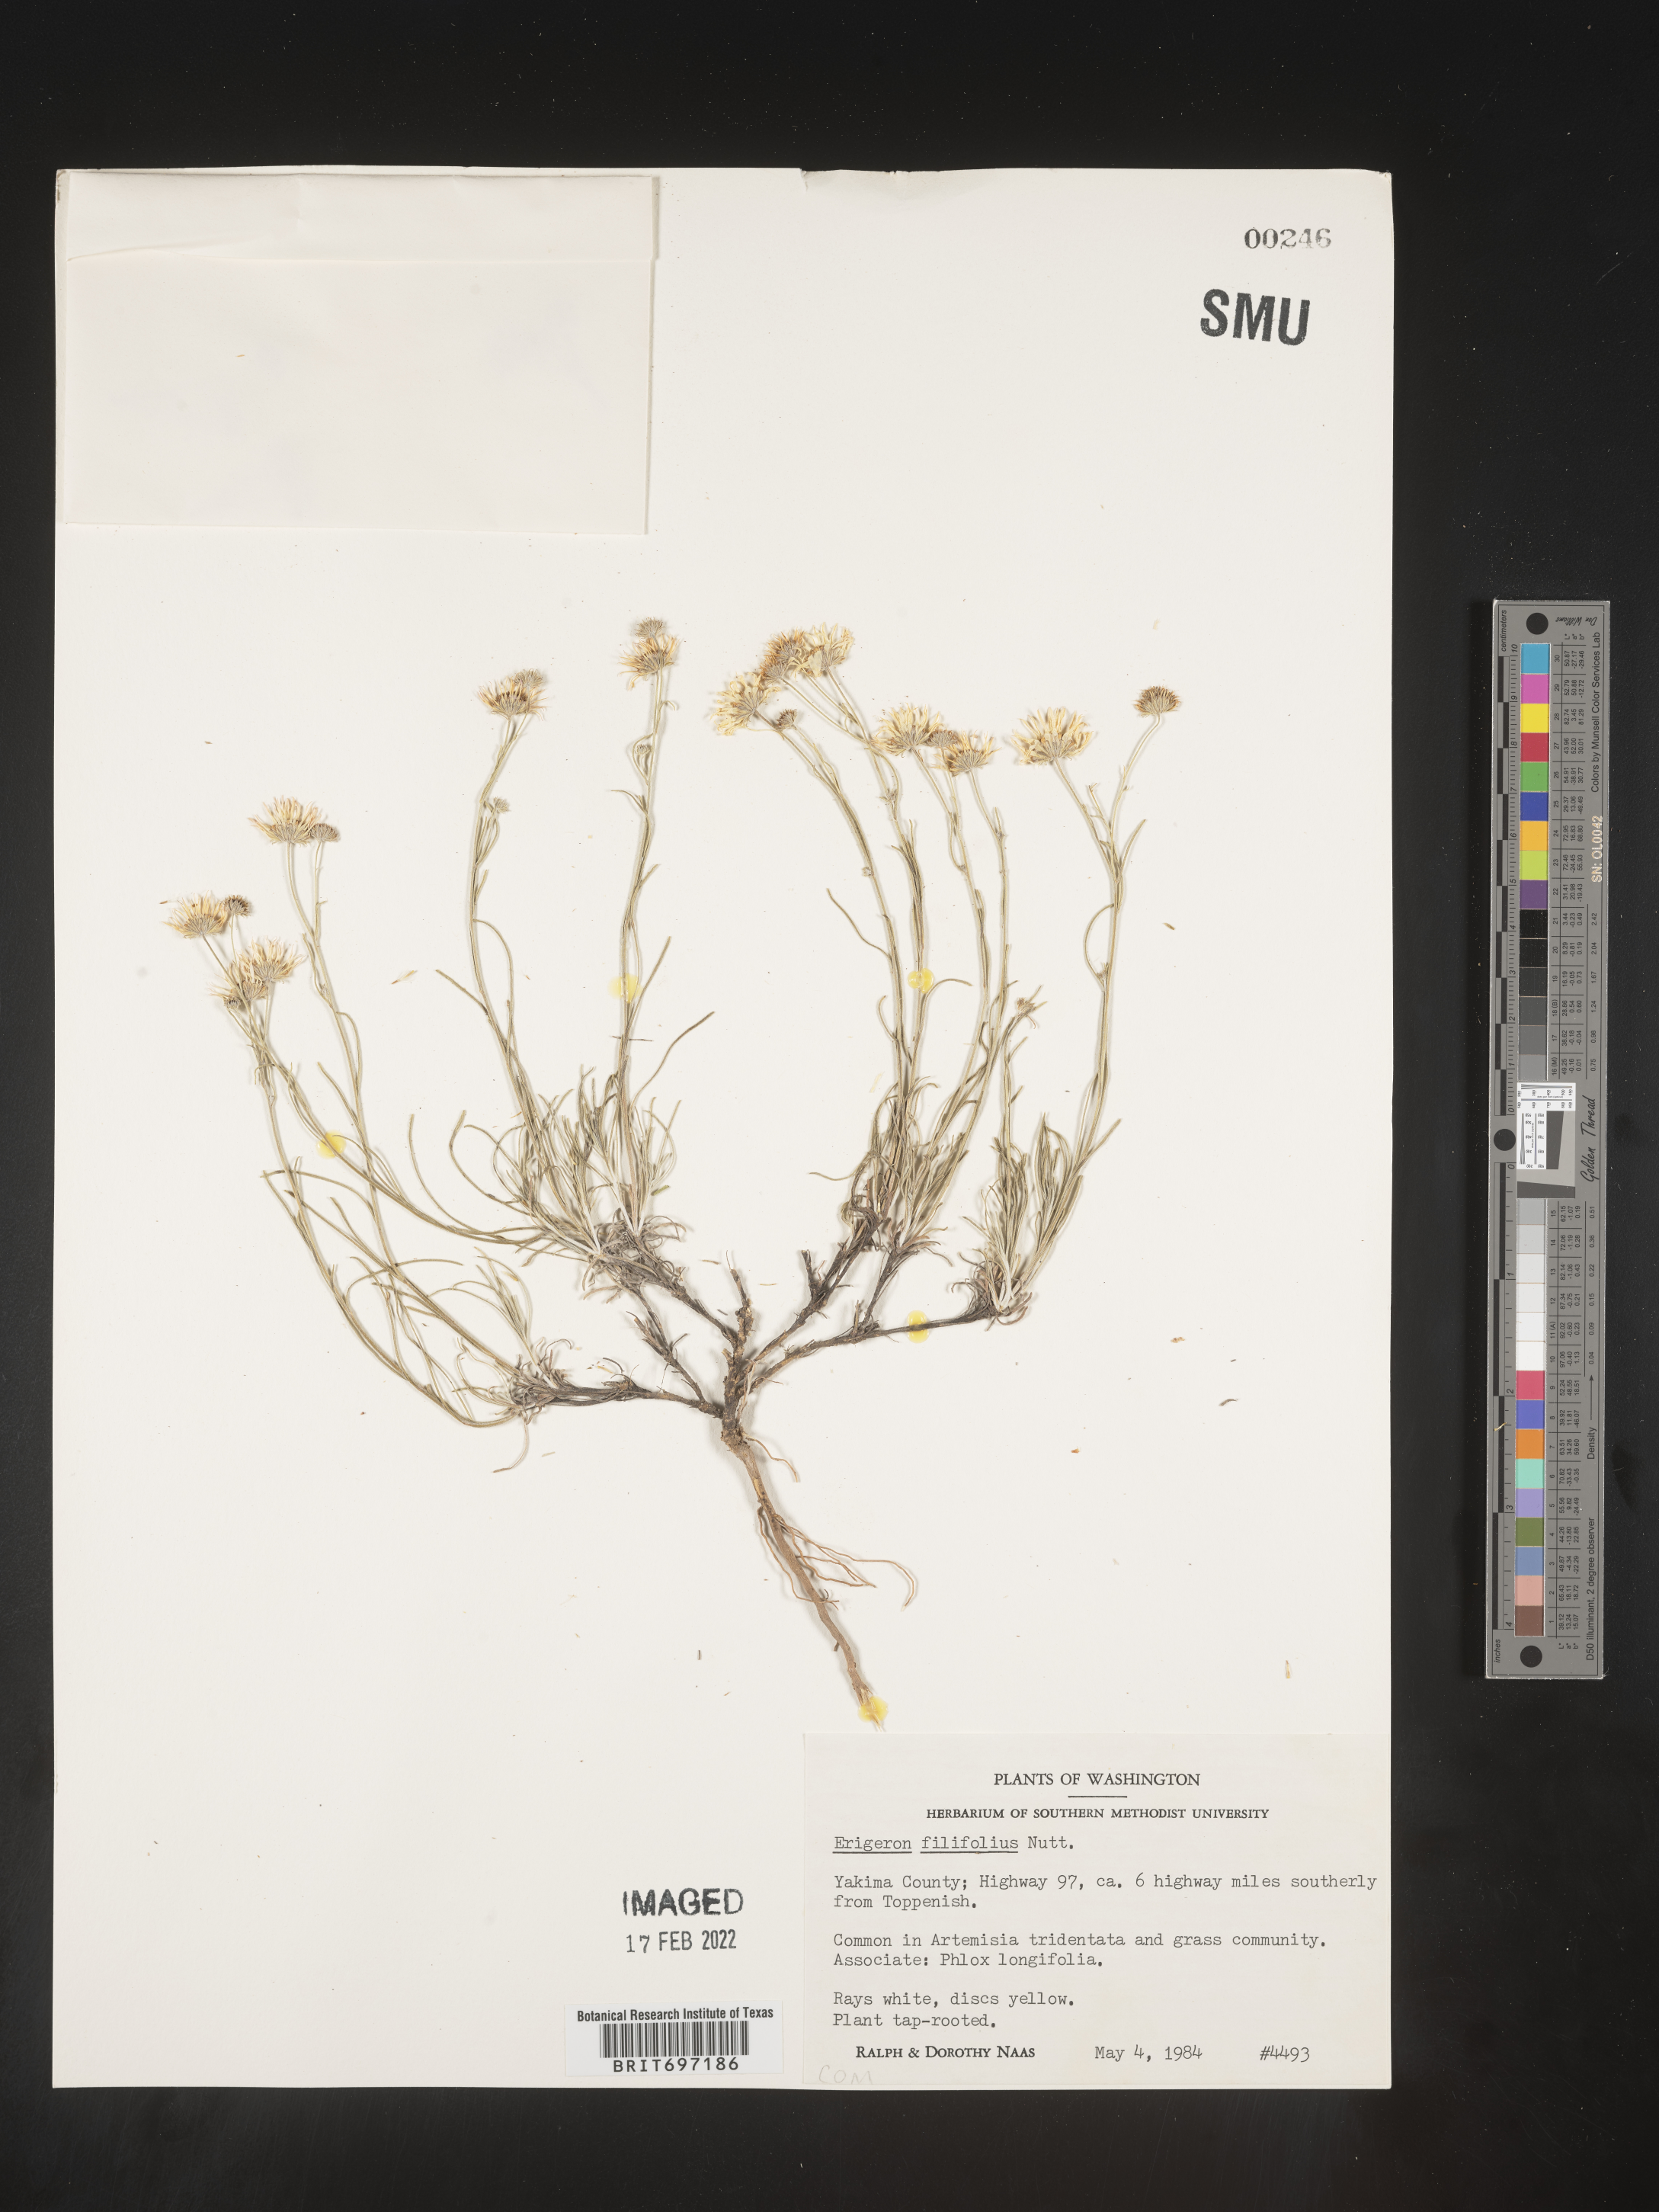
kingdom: Plantae
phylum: Tracheophyta
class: Magnoliopsida
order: Asterales
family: Asteraceae
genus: Erigeron
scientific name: Erigeron filifolius
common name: Threadleaf fleabane
